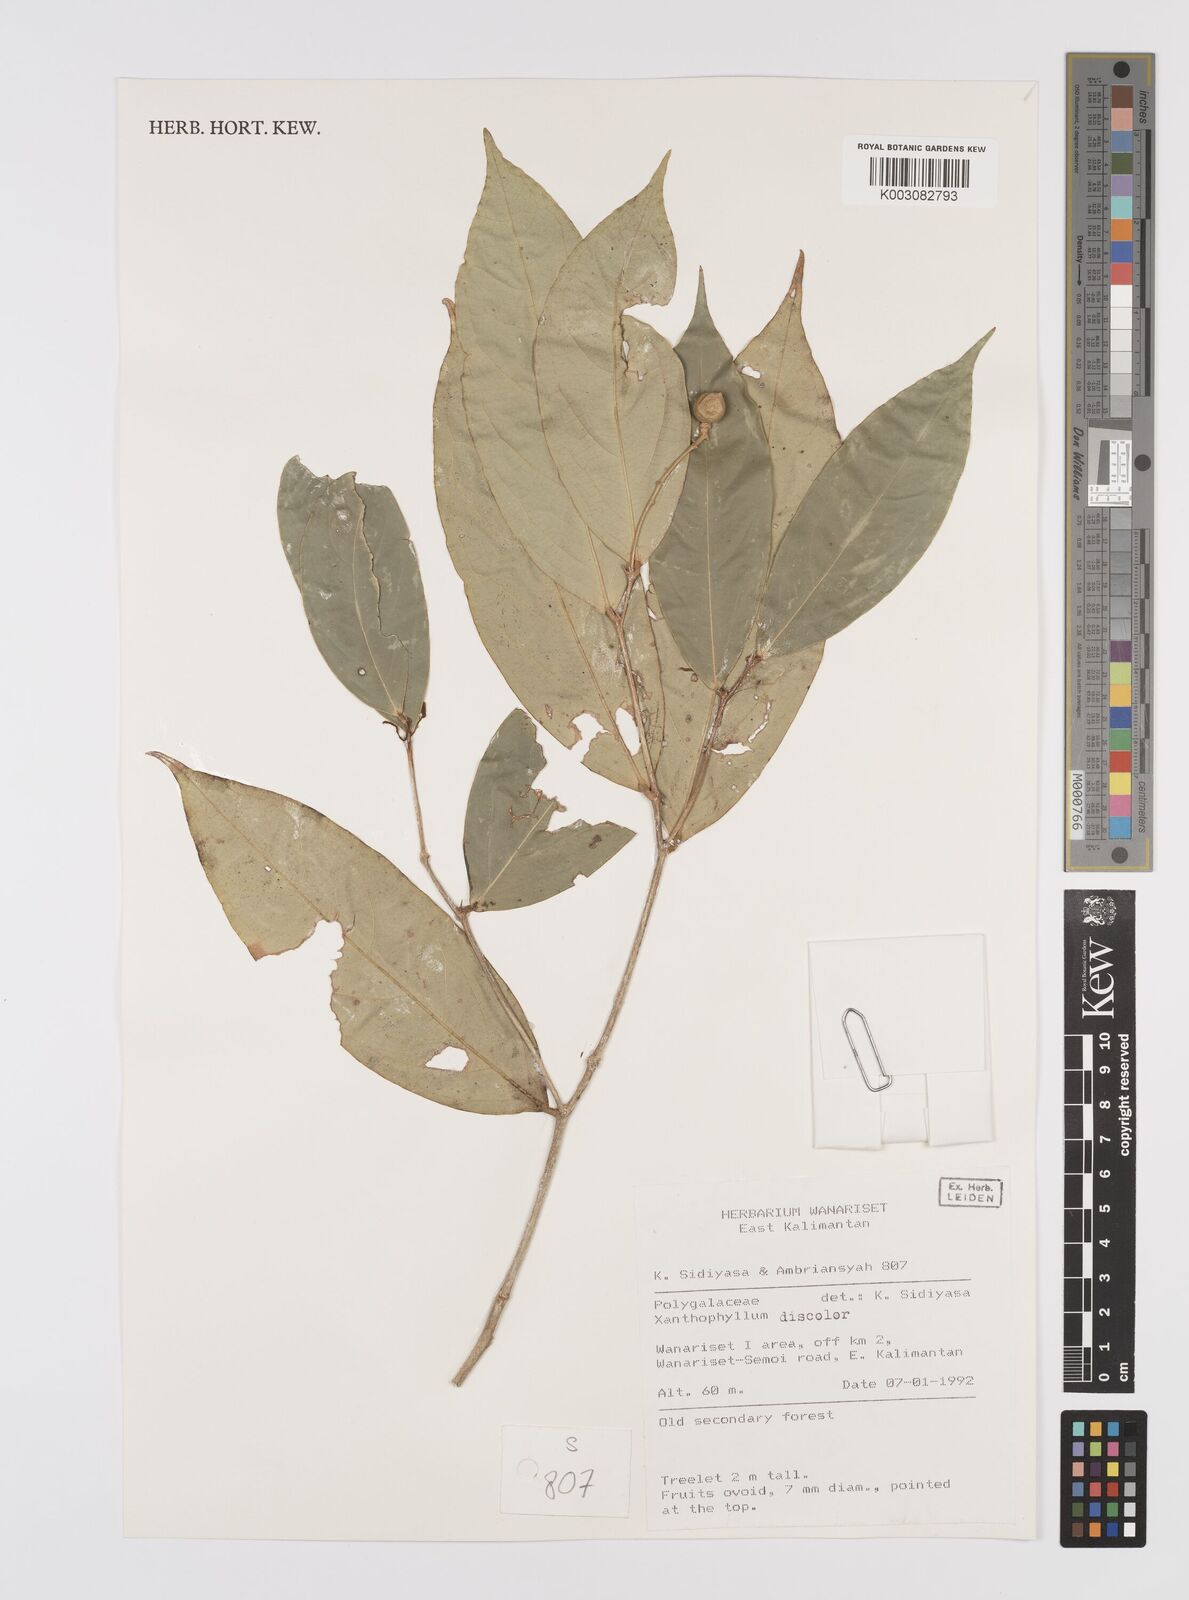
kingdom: Plantae
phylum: Tracheophyta
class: Magnoliopsida
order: Fabales
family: Polygalaceae
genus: Xanthophyllum
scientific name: Xanthophyllum discolor
